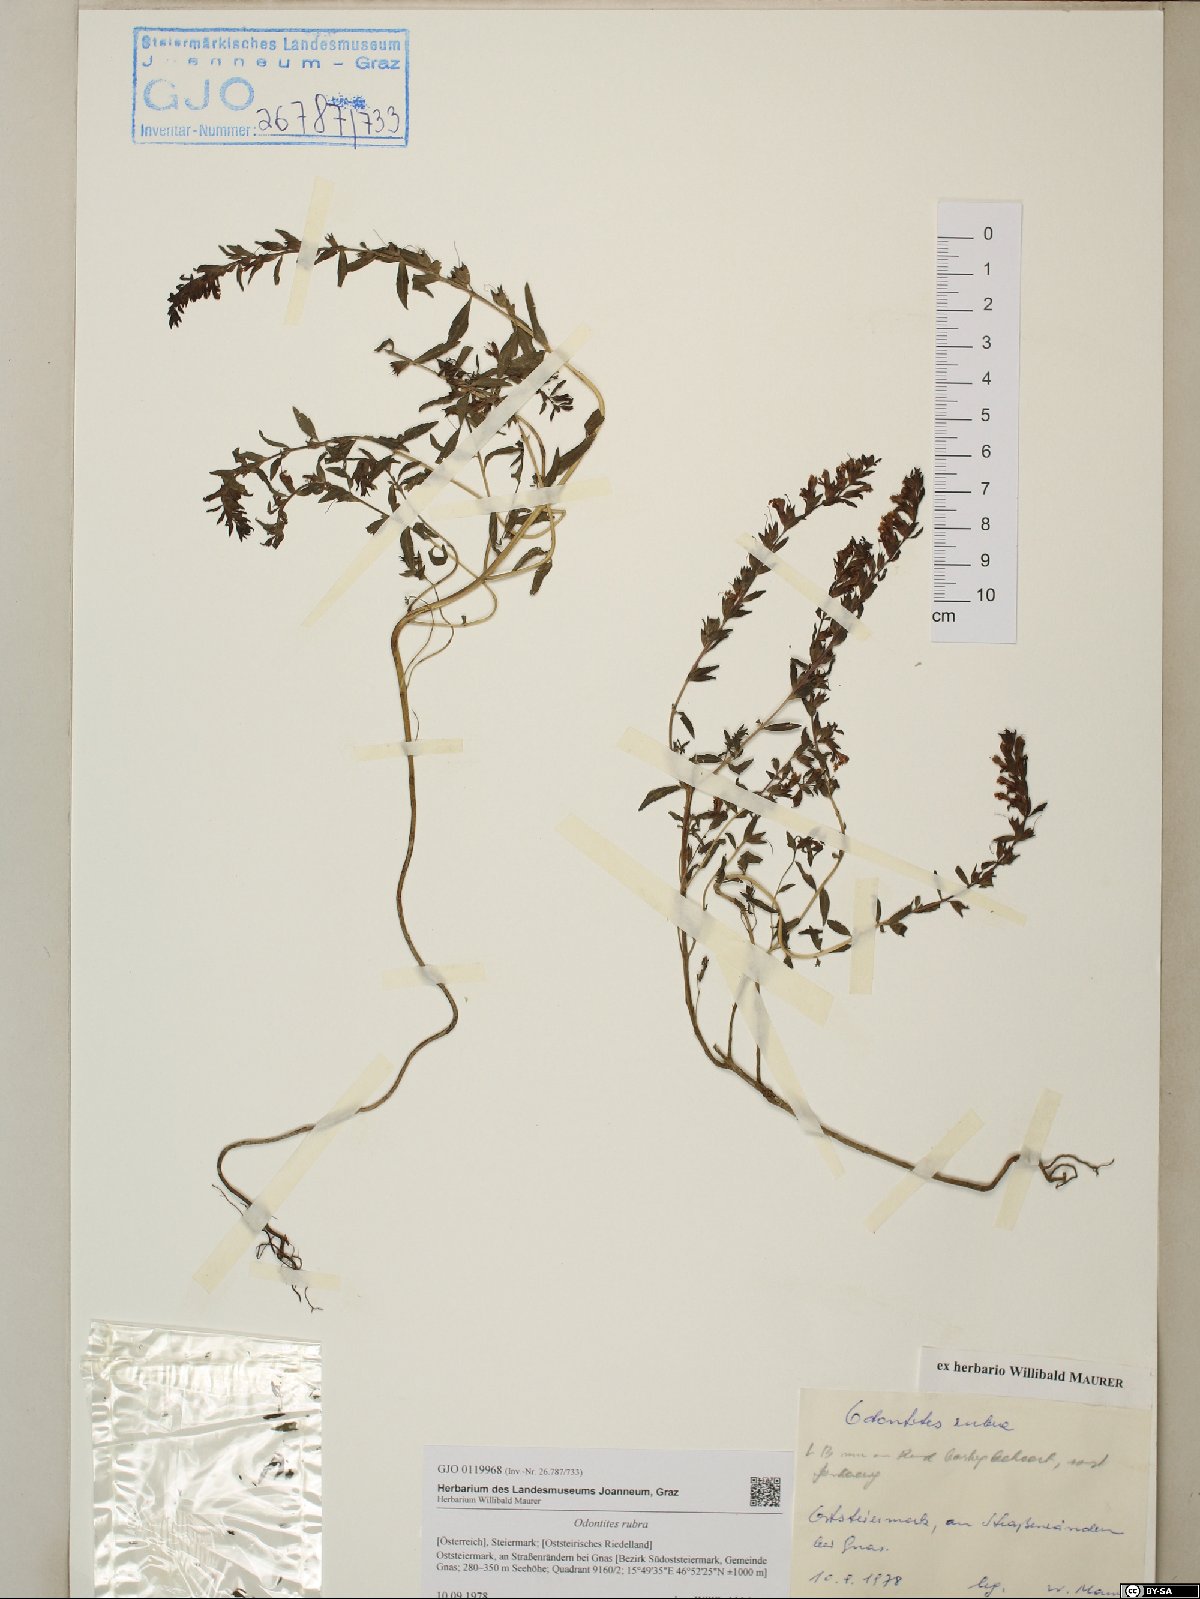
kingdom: Plantae
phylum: Tracheophyta
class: Magnoliopsida
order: Lamiales
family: Orobanchaceae
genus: Odontites
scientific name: Odontites vulgaris
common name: Broomrape
